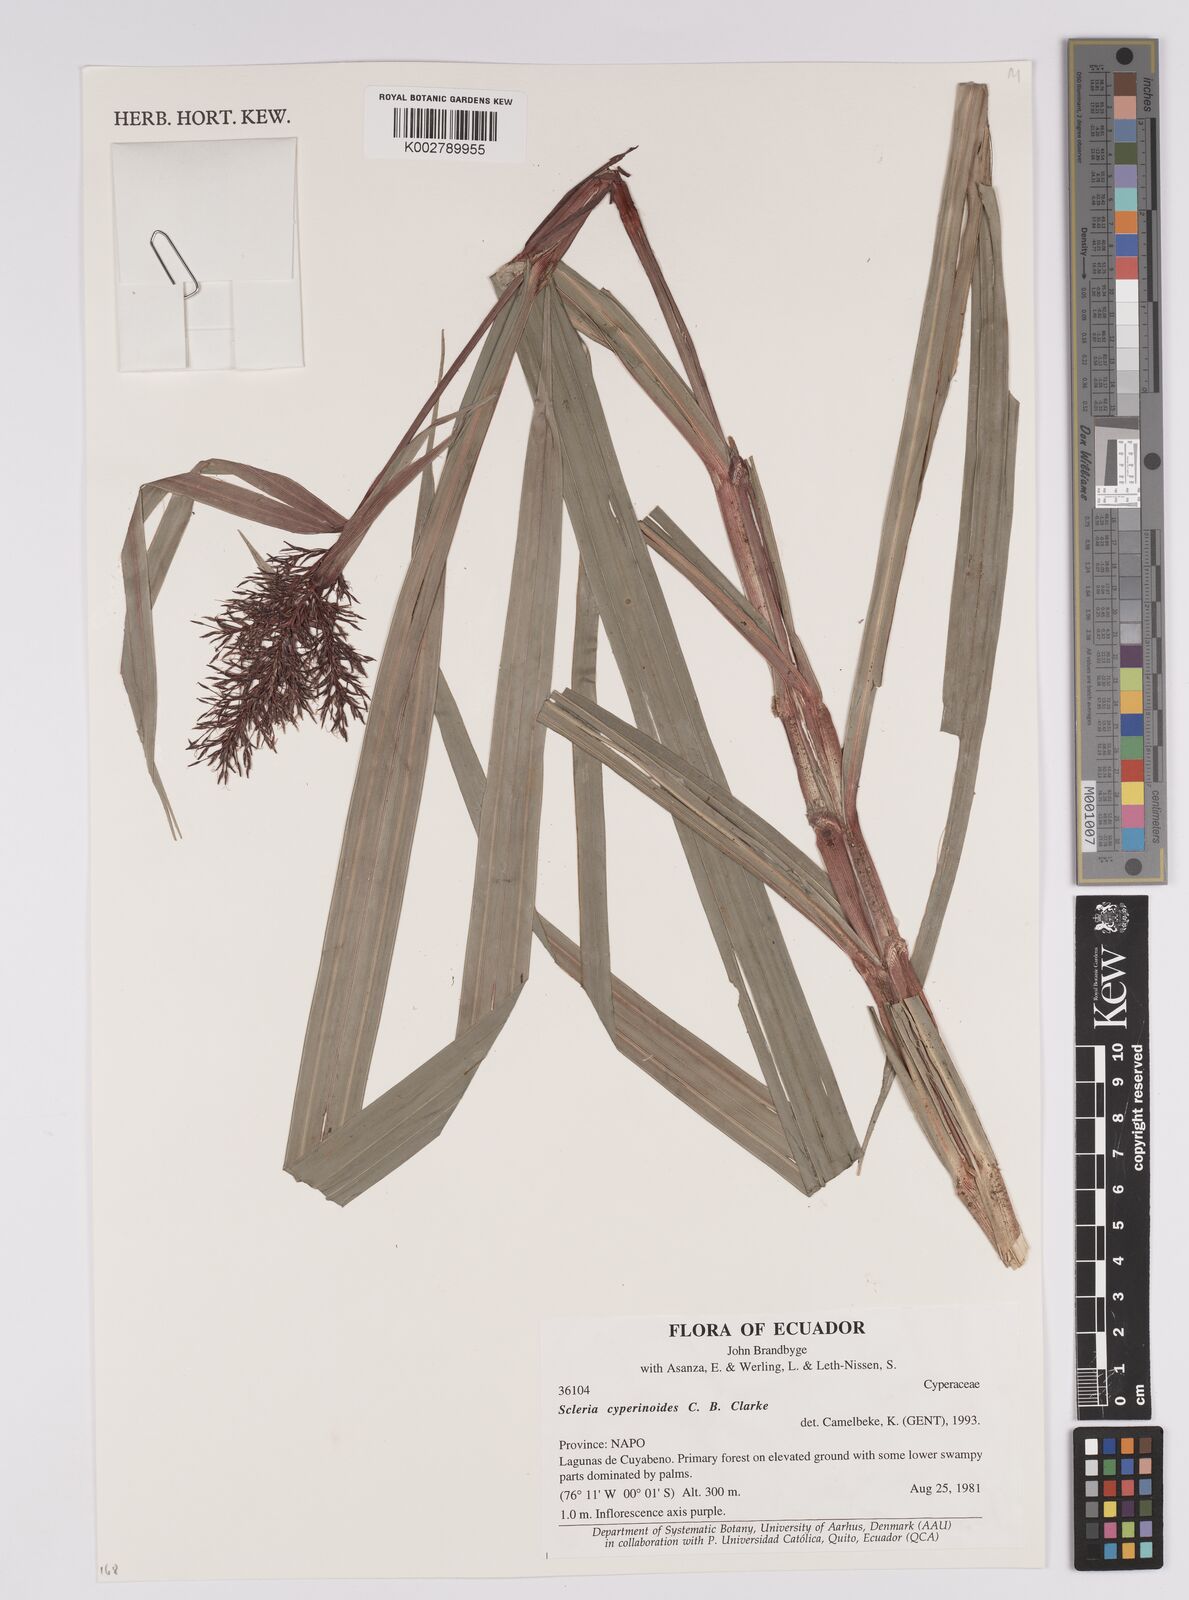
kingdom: Plantae
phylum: Tracheophyta
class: Liliopsida
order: Poales
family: Cyperaceae
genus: Scleria
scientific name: Scleria martii
